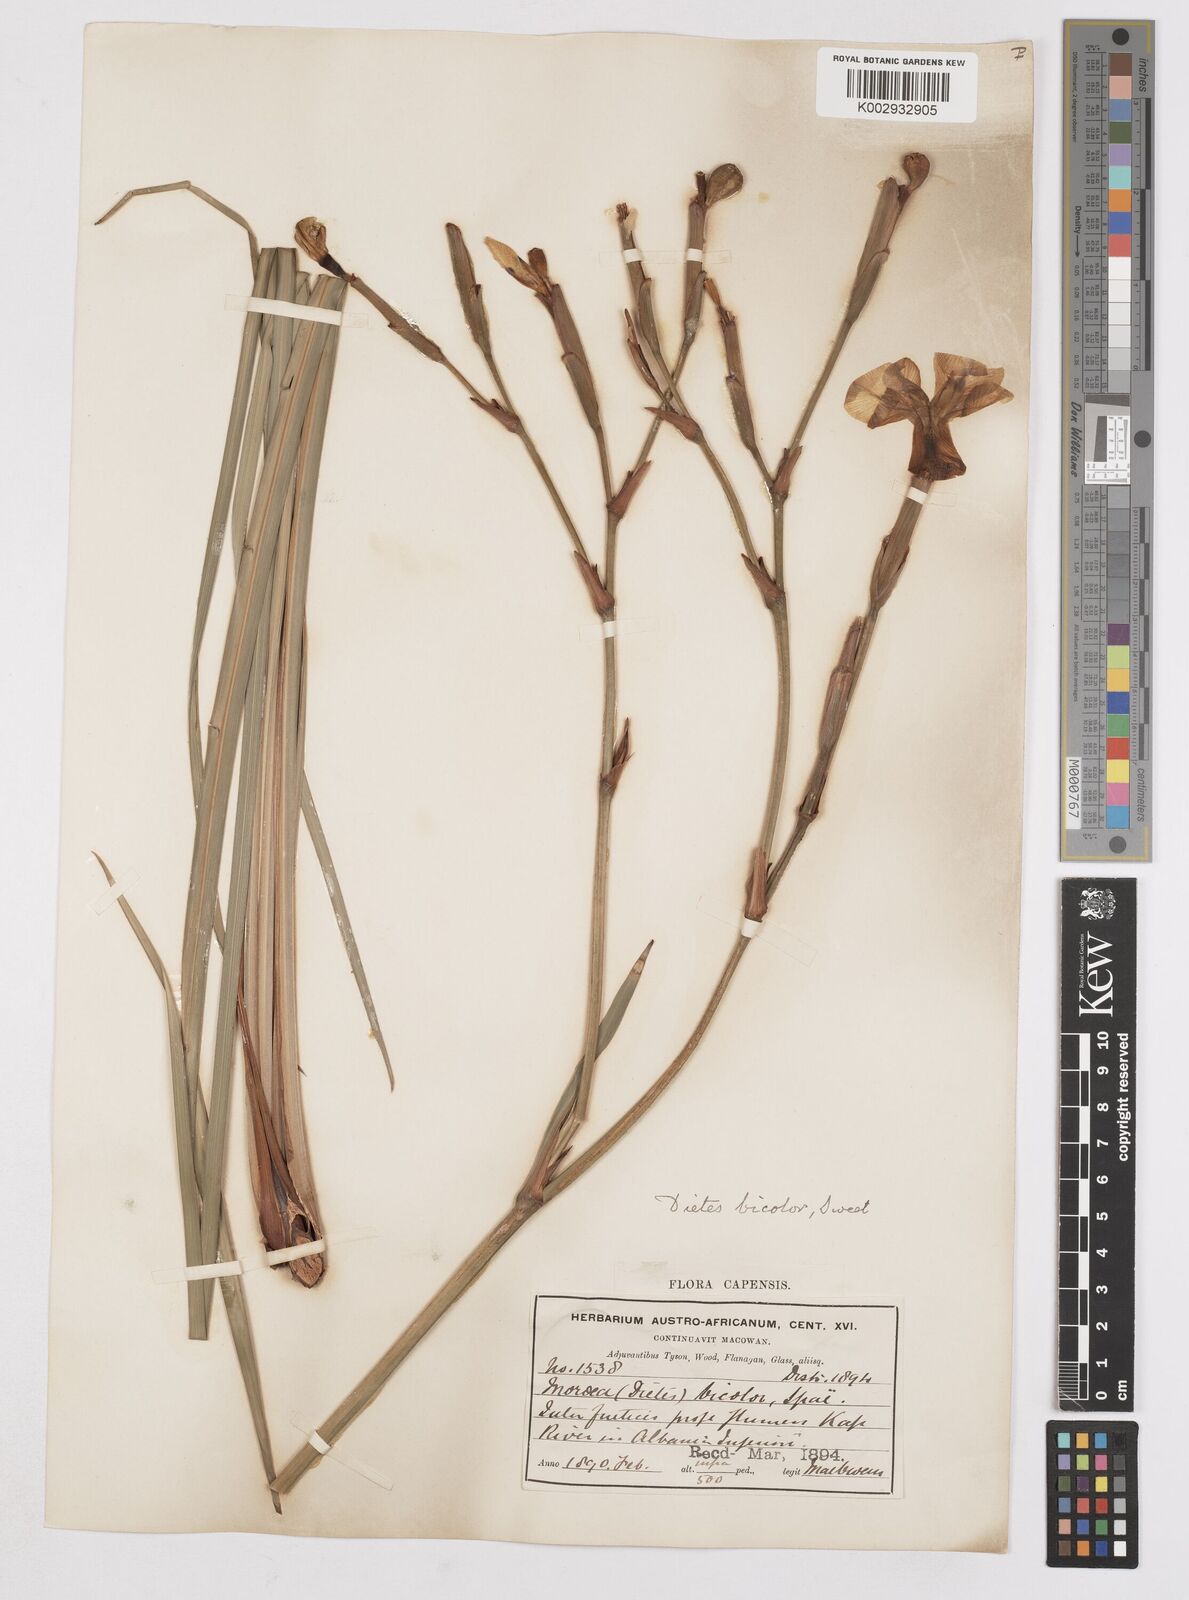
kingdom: Plantae
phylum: Tracheophyta
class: Liliopsida
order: Asparagales
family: Iridaceae
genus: Dietes
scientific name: Dietes bicolor
